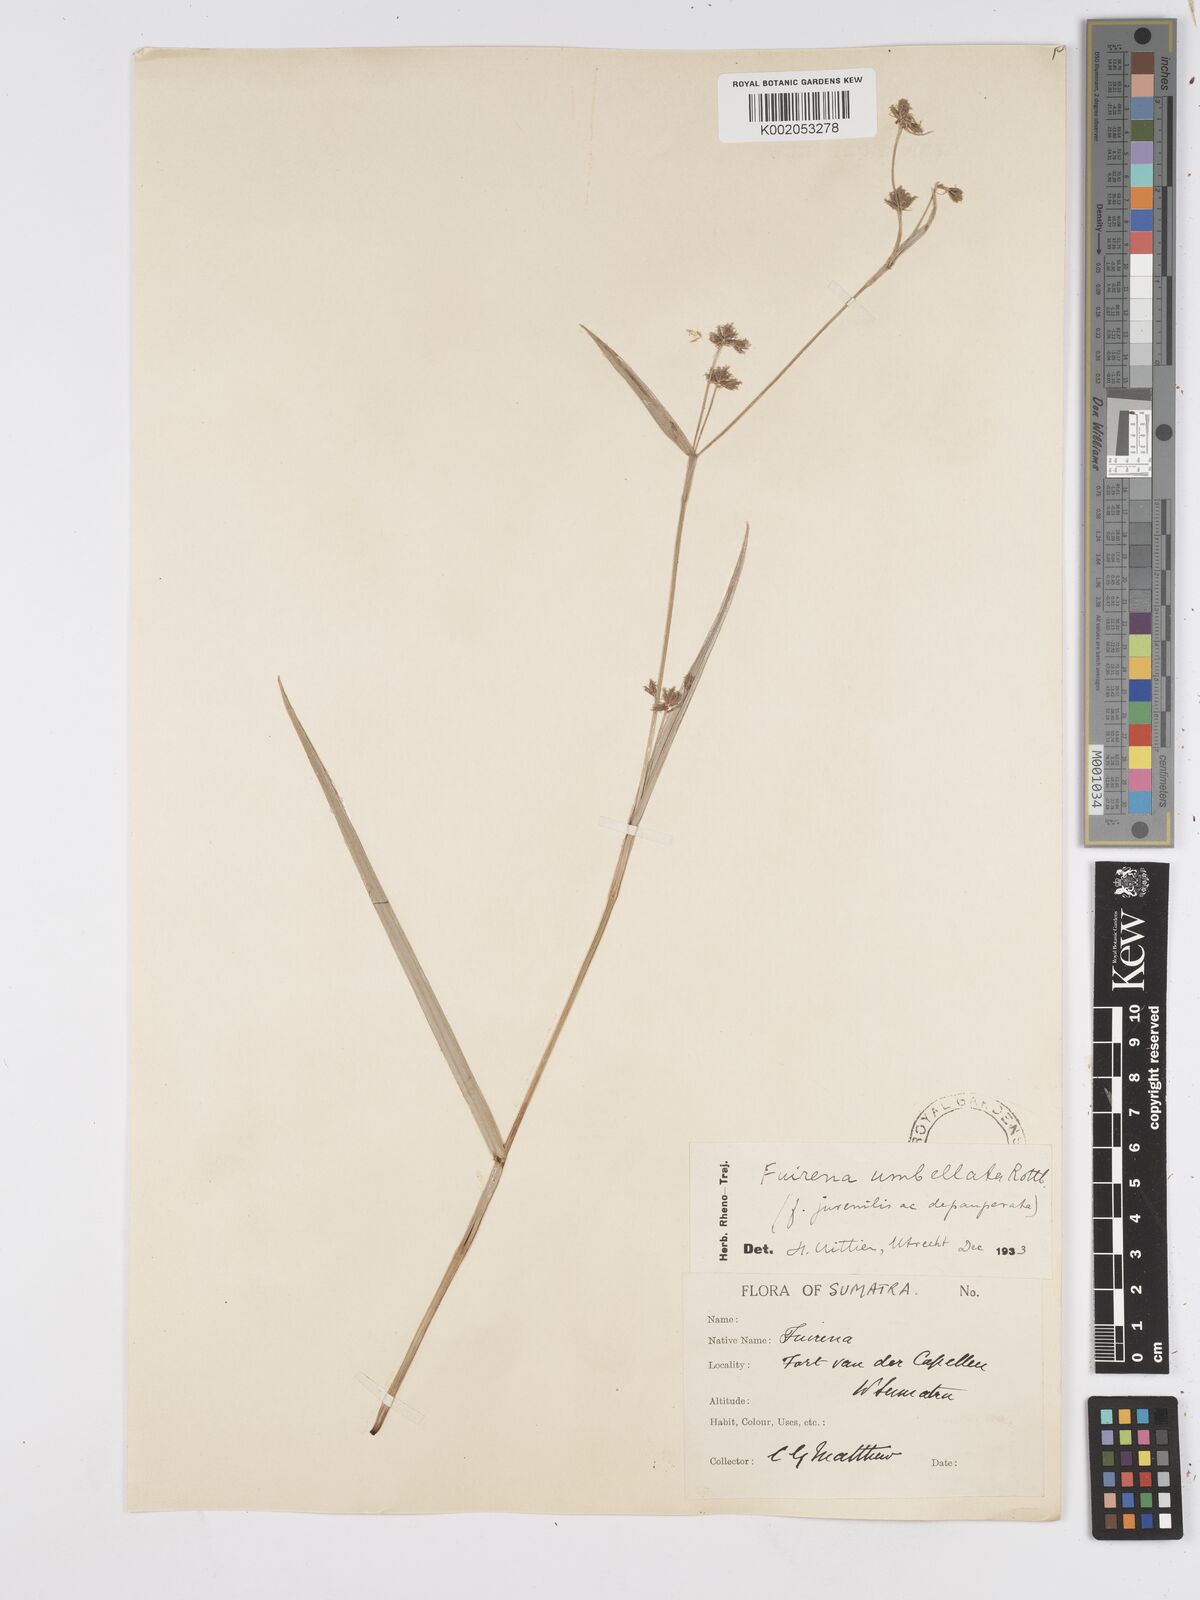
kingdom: Plantae
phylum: Tracheophyta
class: Liliopsida
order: Poales
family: Cyperaceae
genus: Fuirena
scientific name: Fuirena umbellata
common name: Yefen
